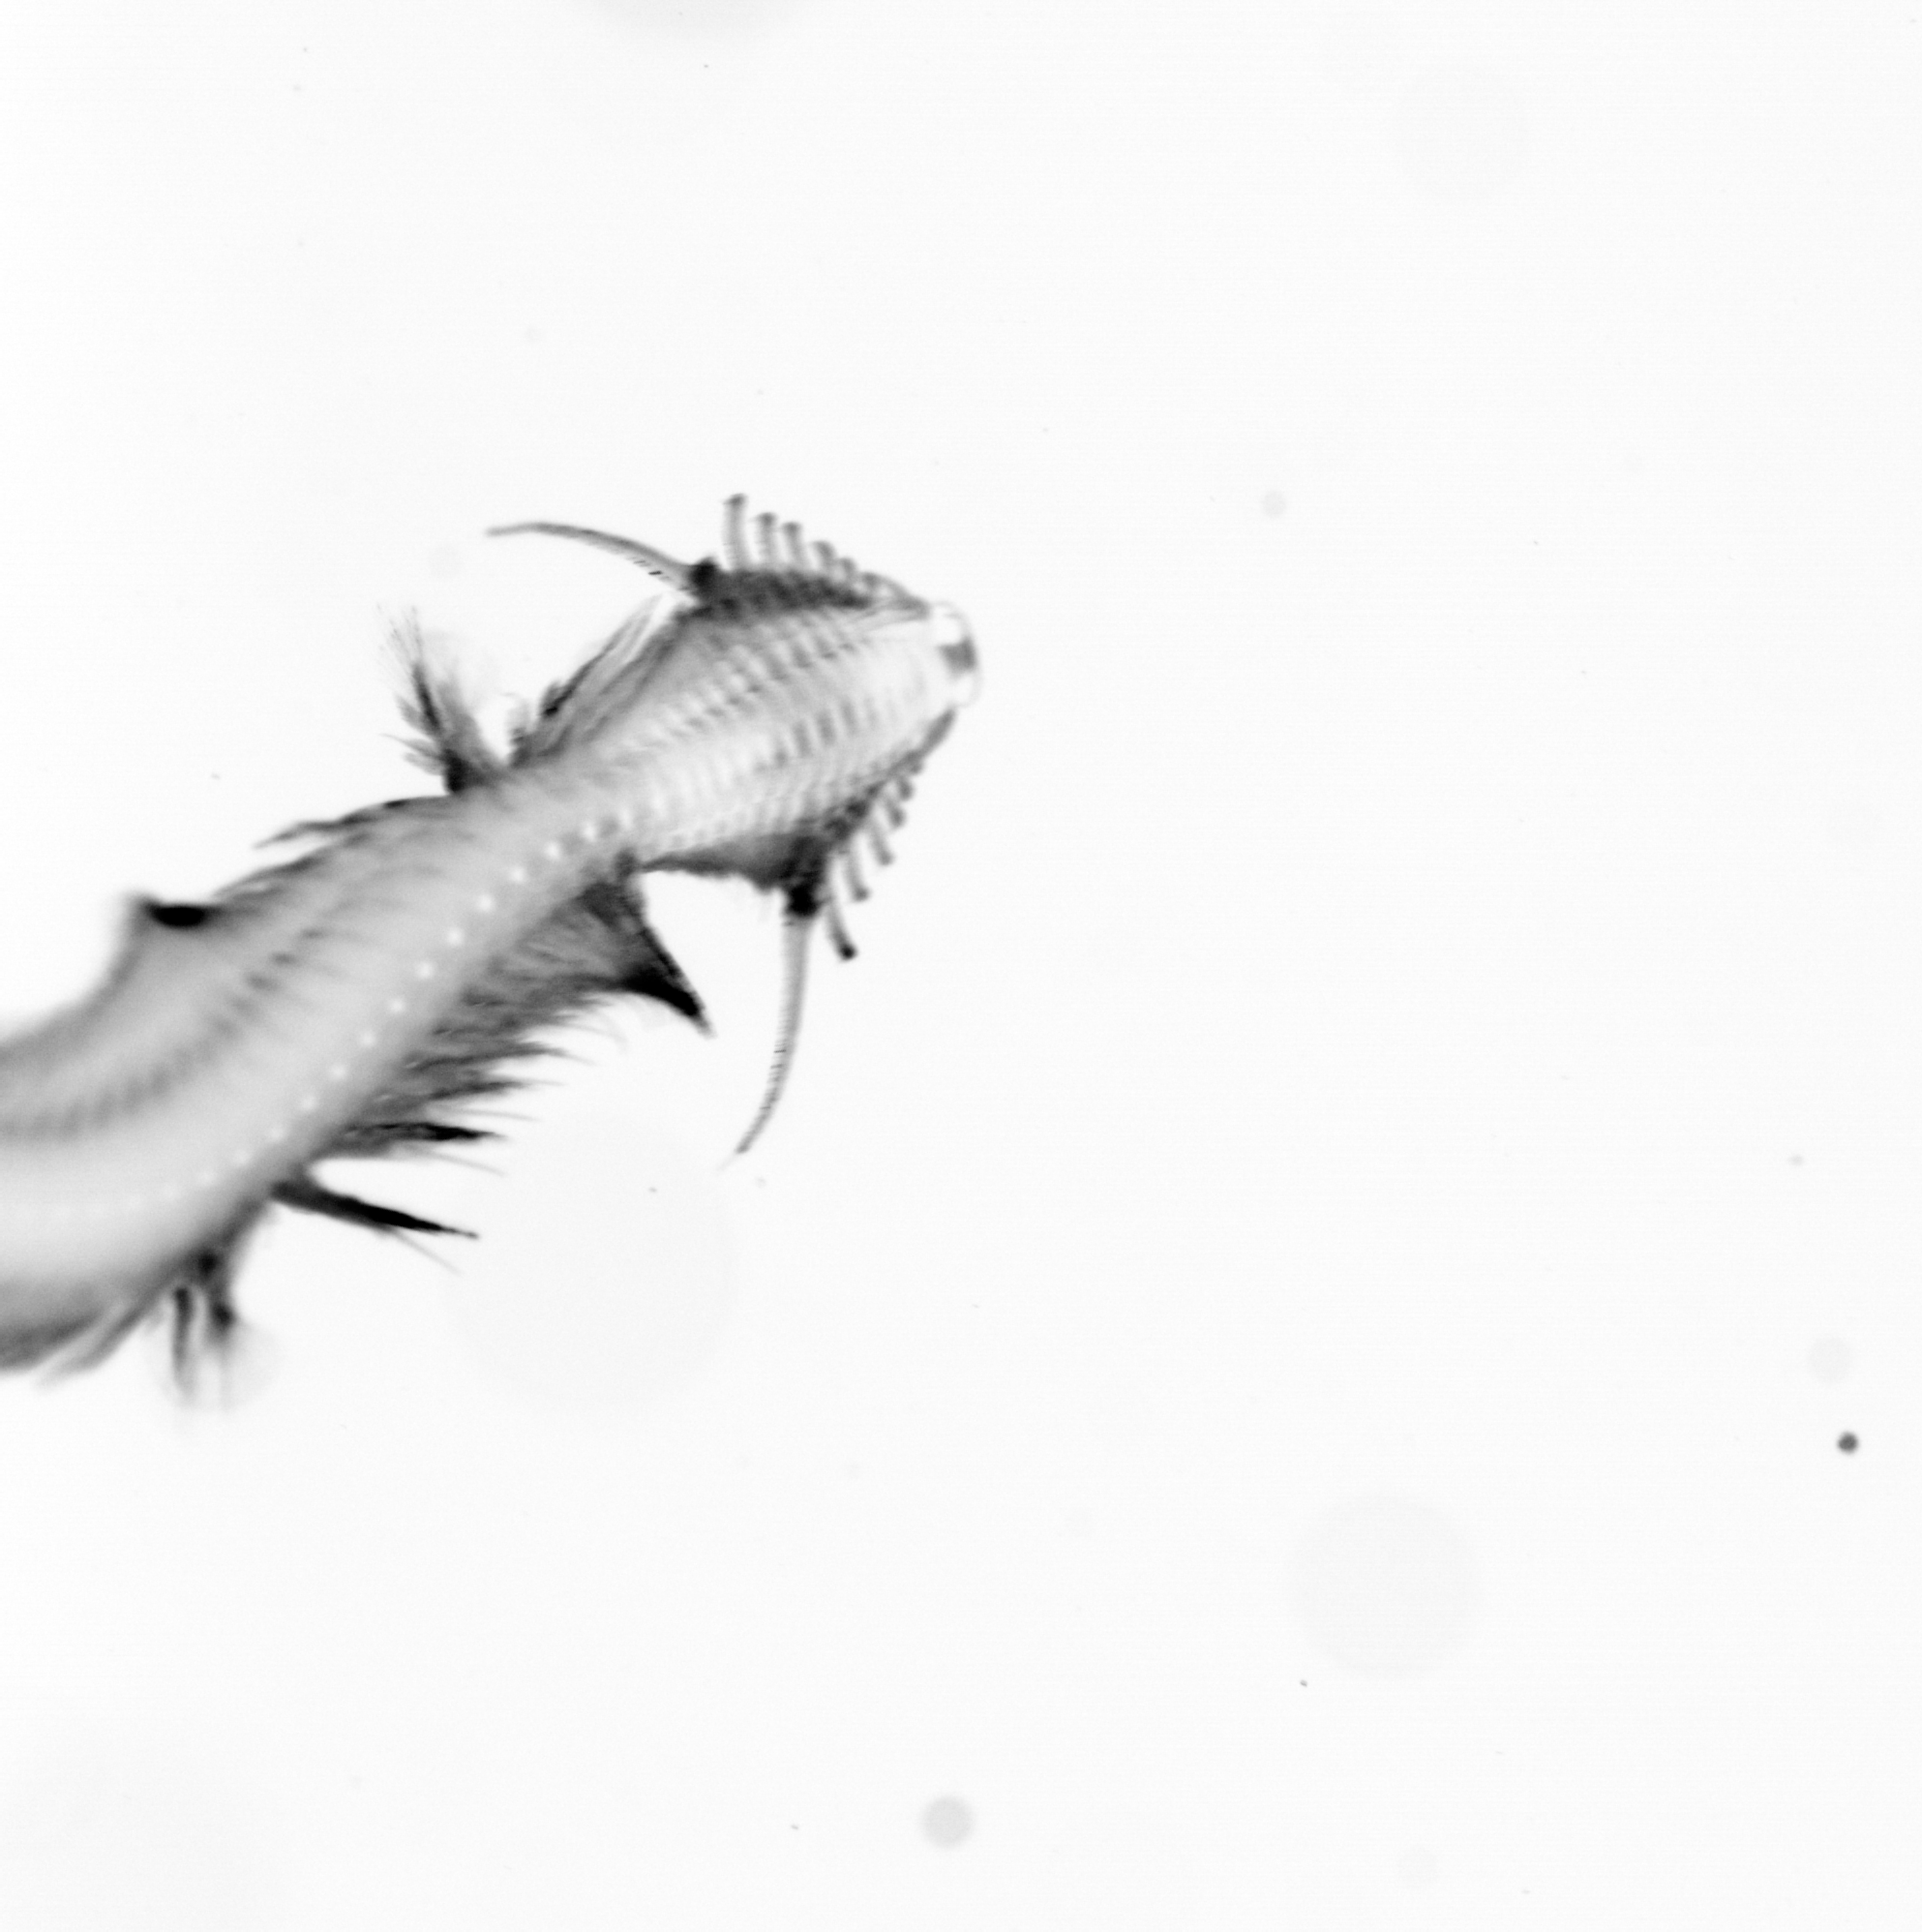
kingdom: Animalia
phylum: Annelida
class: Polychaeta
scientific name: Polychaeta
